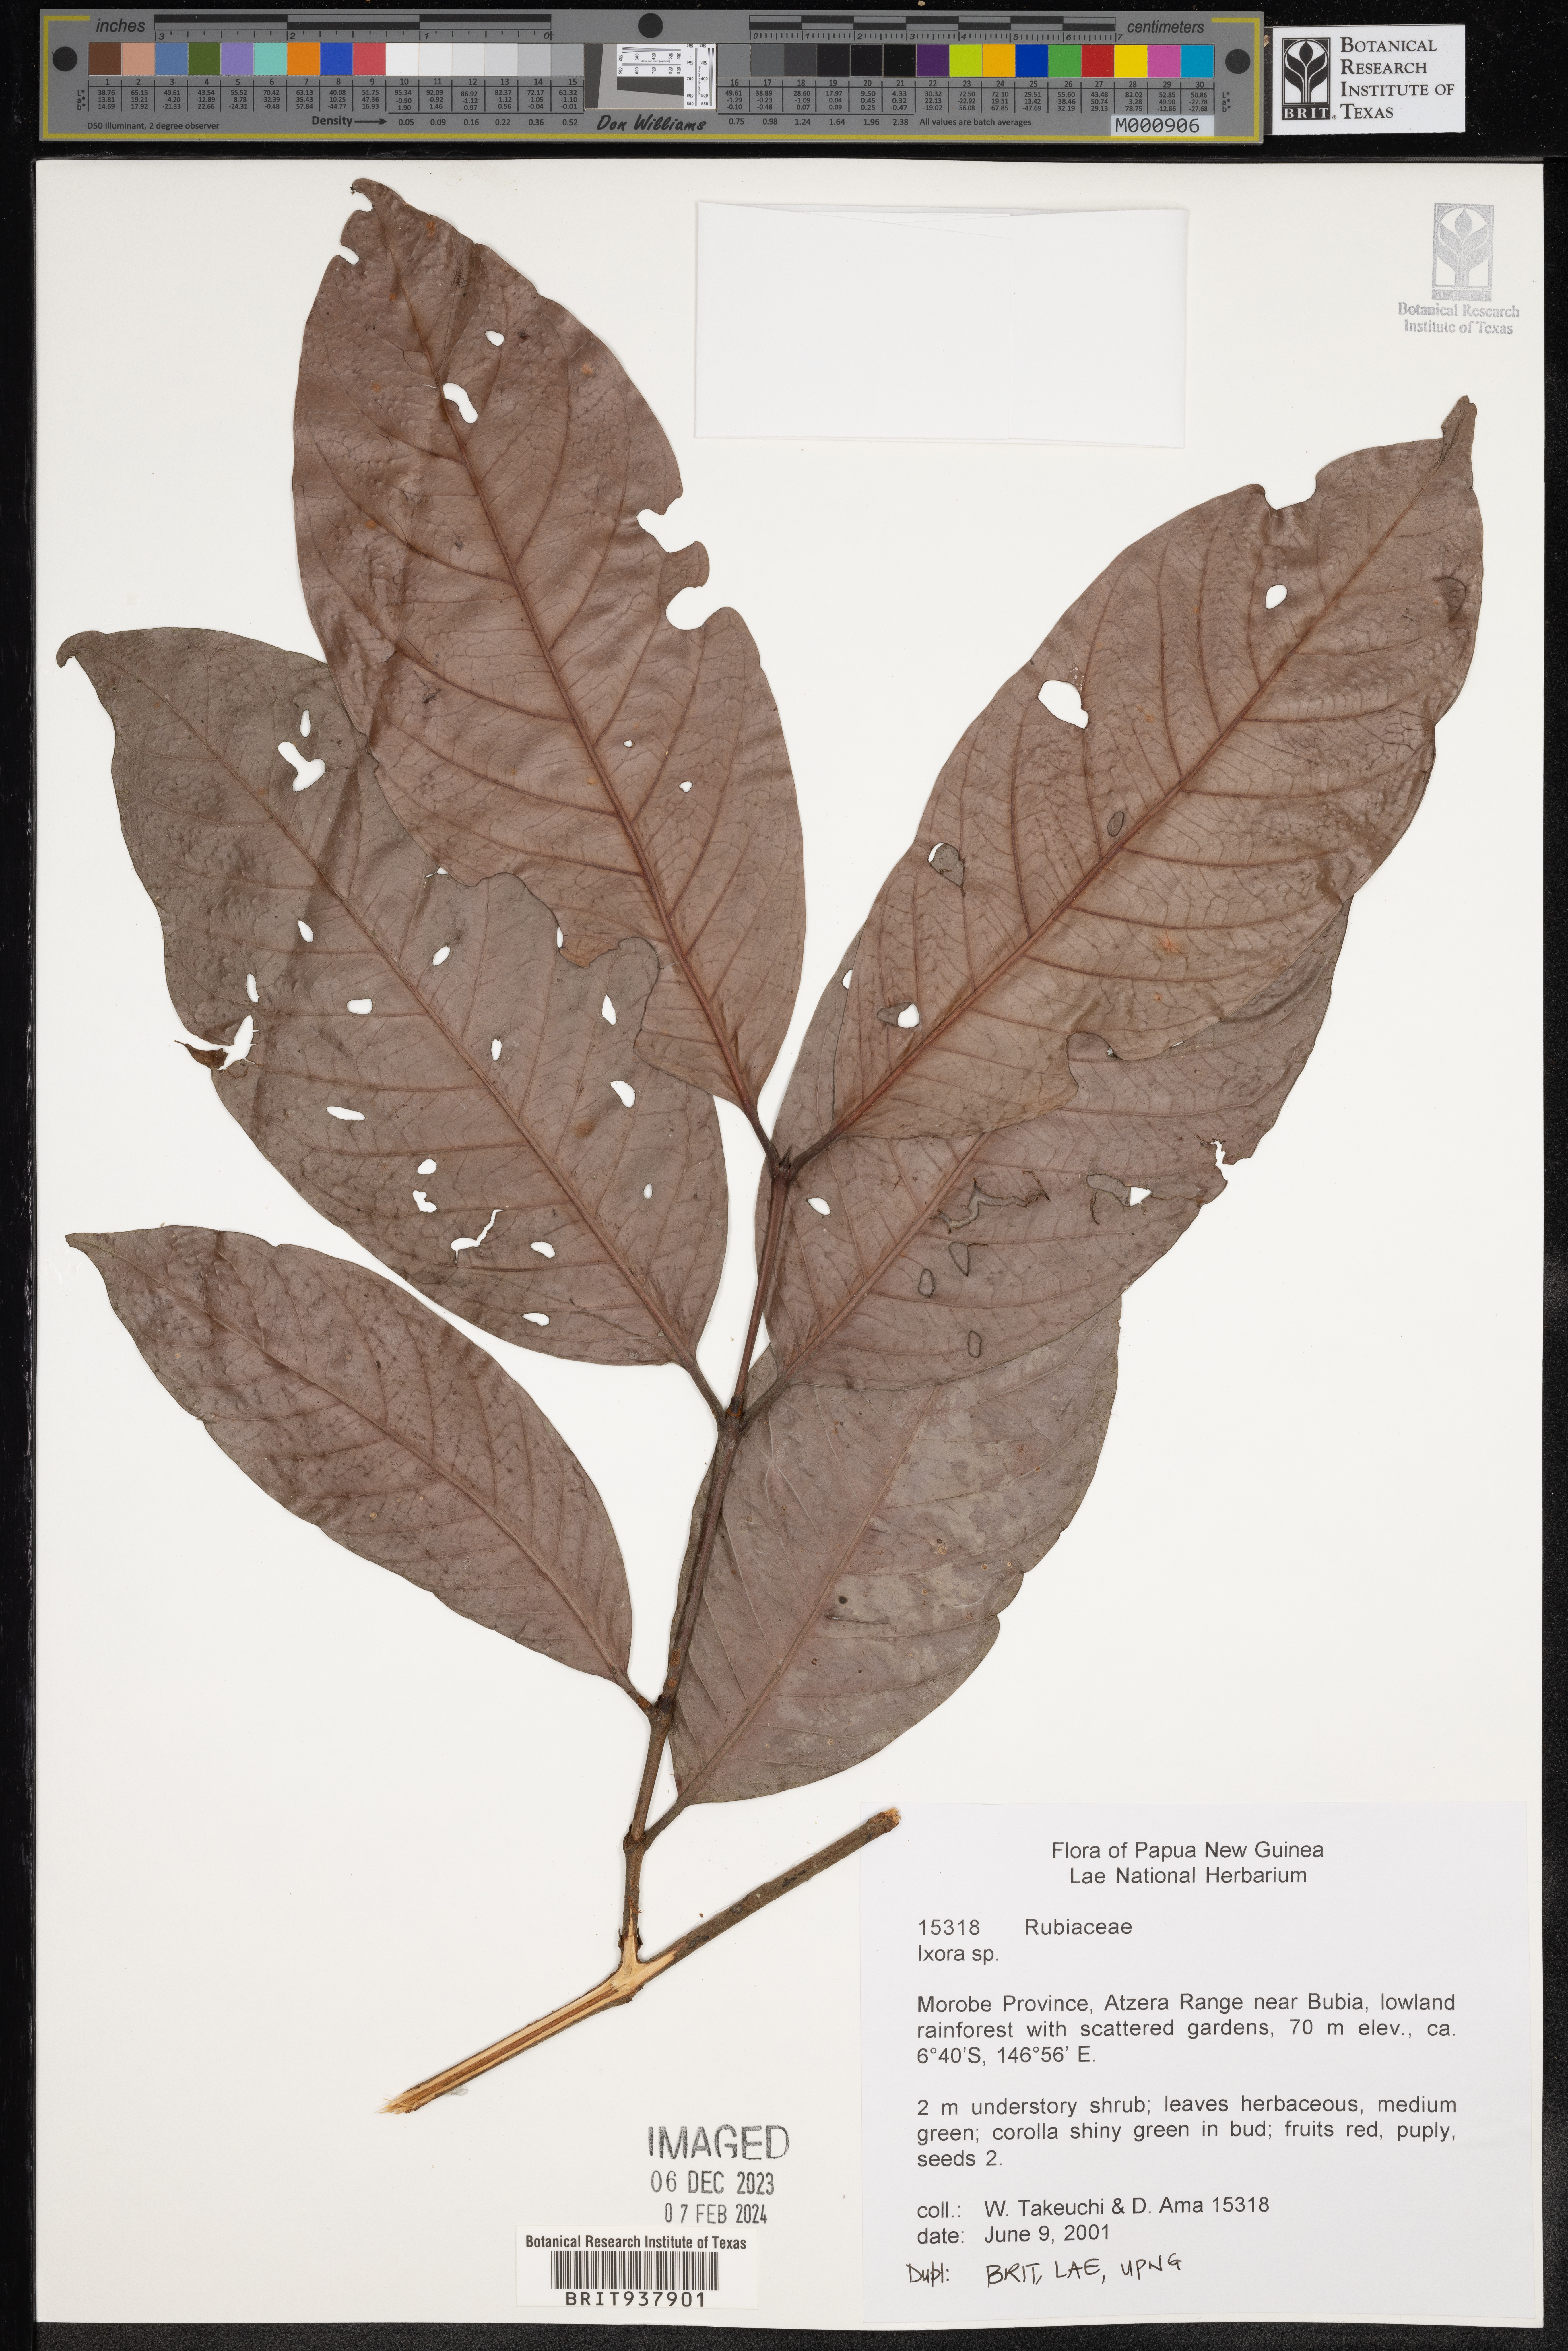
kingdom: Plantae
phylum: Tracheophyta
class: Magnoliopsida
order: Gentianales
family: Rubiaceae
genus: Ixora
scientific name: Ixora
